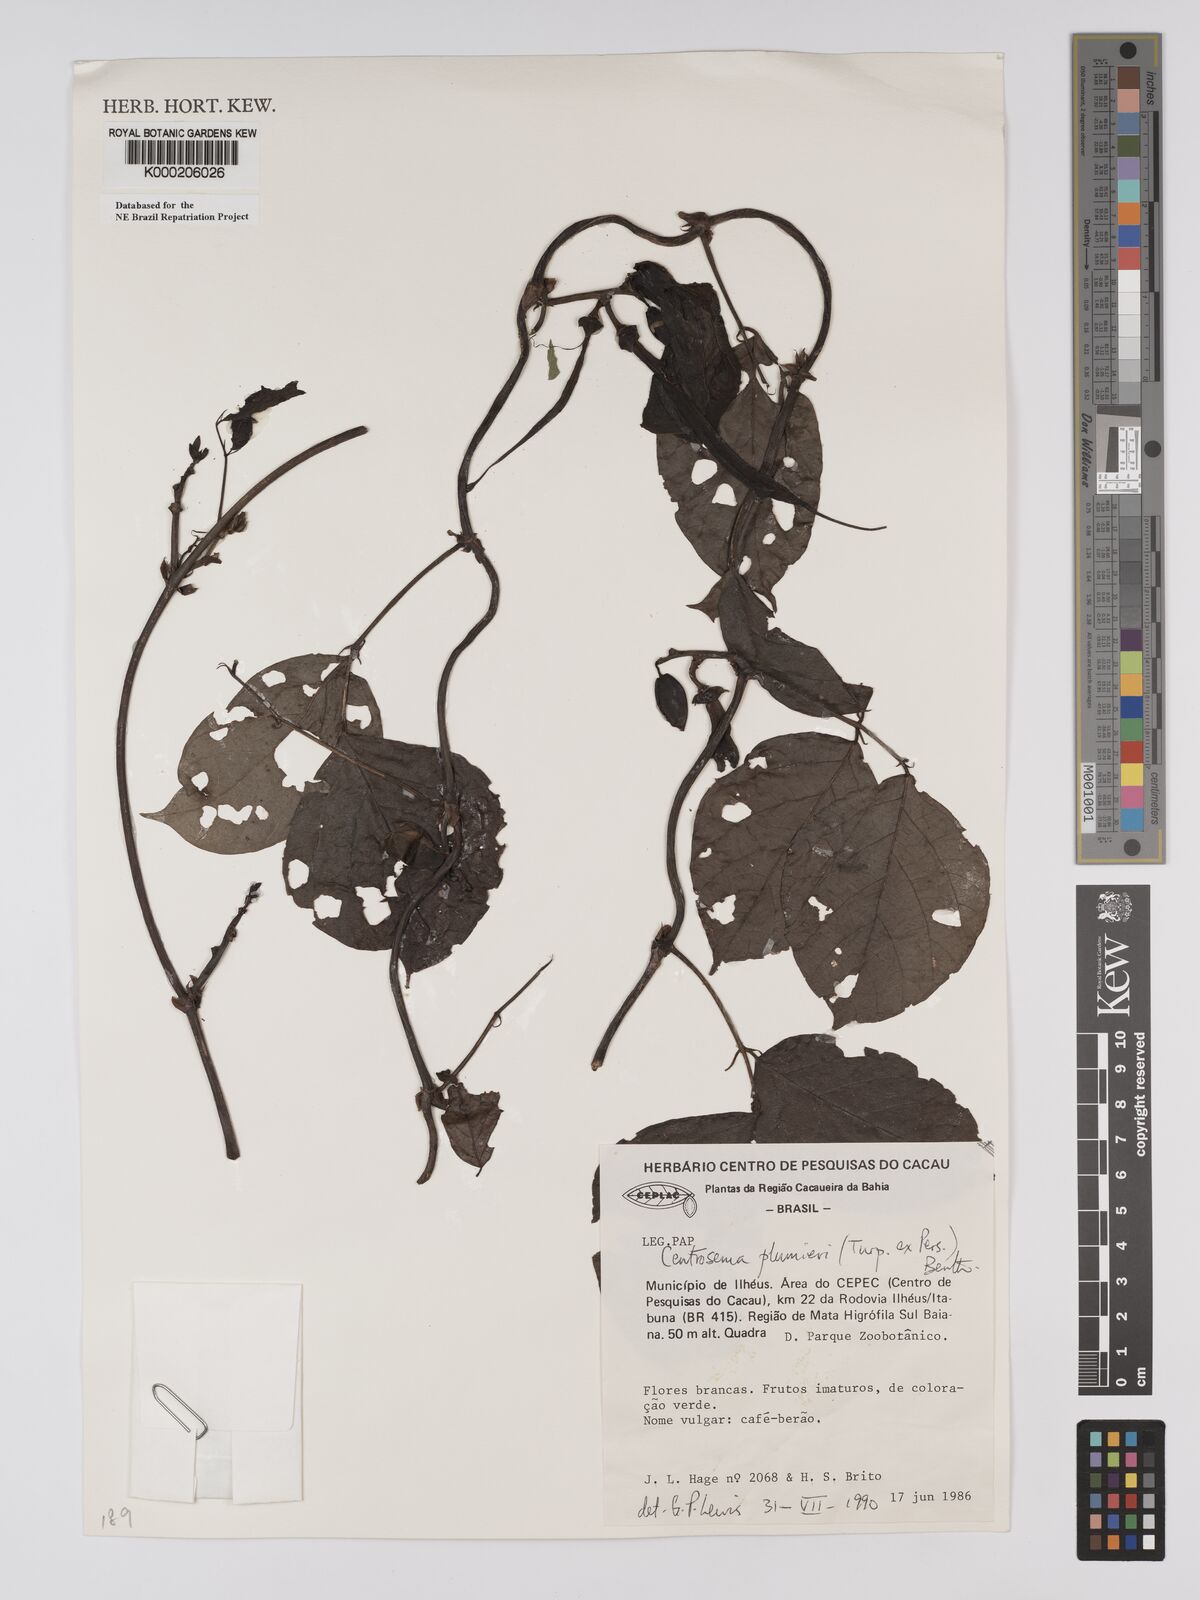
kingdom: Plantae
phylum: Tracheophyta
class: Magnoliopsida
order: Fabales
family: Fabaceae
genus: Centrosema
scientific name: Centrosema plumieri
